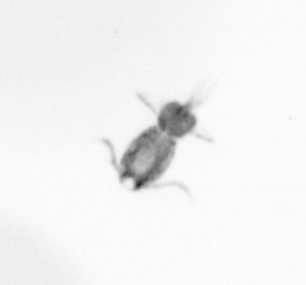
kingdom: Animalia
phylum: Arthropoda
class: Copepoda
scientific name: Copepoda
